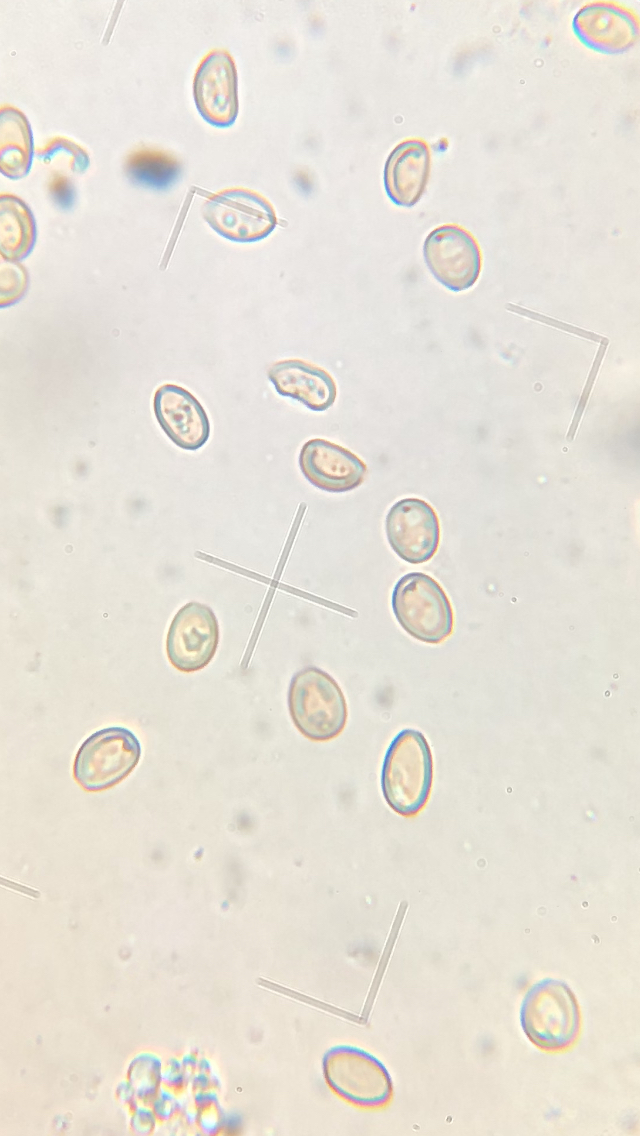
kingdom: Fungi
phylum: Basidiomycota
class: Agaricomycetes
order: Agaricales
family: Strophariaceae
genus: Deconica
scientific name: Deconica horizontalis
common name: ved-stråhat
